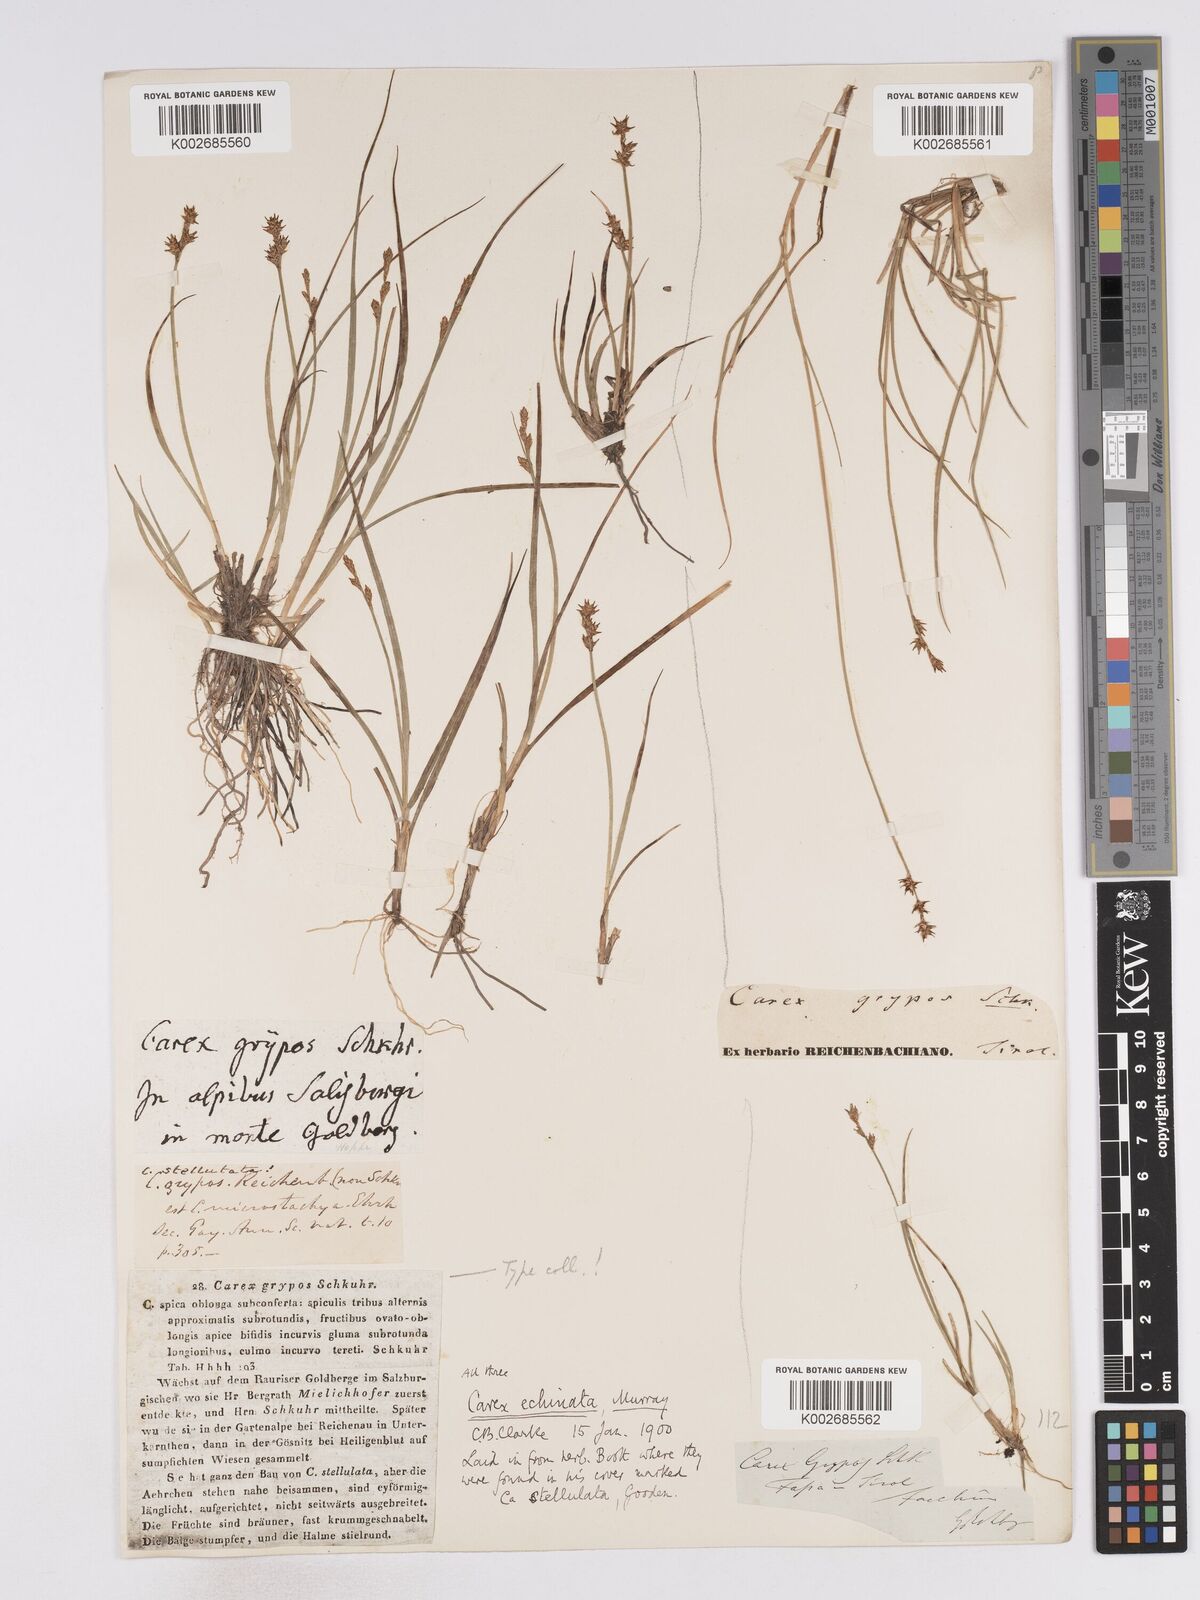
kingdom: Plantae
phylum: Tracheophyta
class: Liliopsida
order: Poales
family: Cyperaceae
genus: Carex
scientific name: Carex echinata
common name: Star sedge
